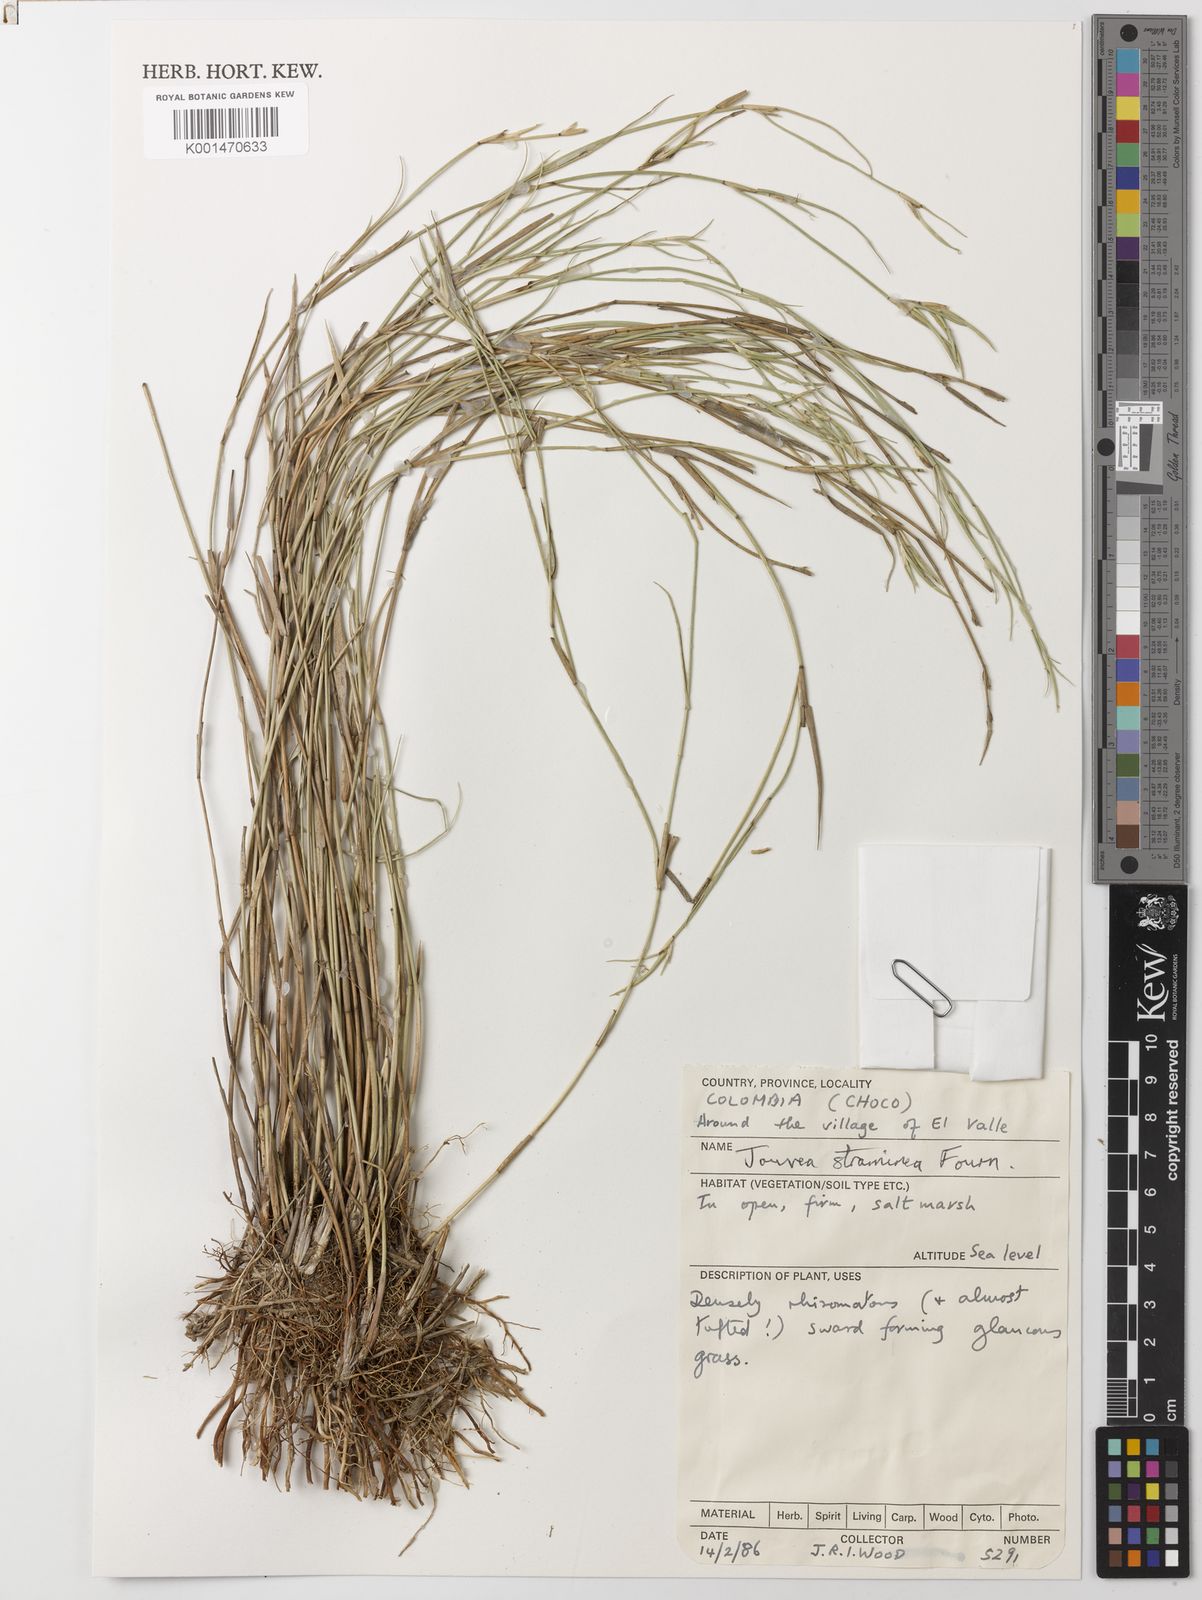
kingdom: Plantae
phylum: Tracheophyta
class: Liliopsida
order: Poales
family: Poaceae
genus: Jouvea
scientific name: Jouvea straminea
